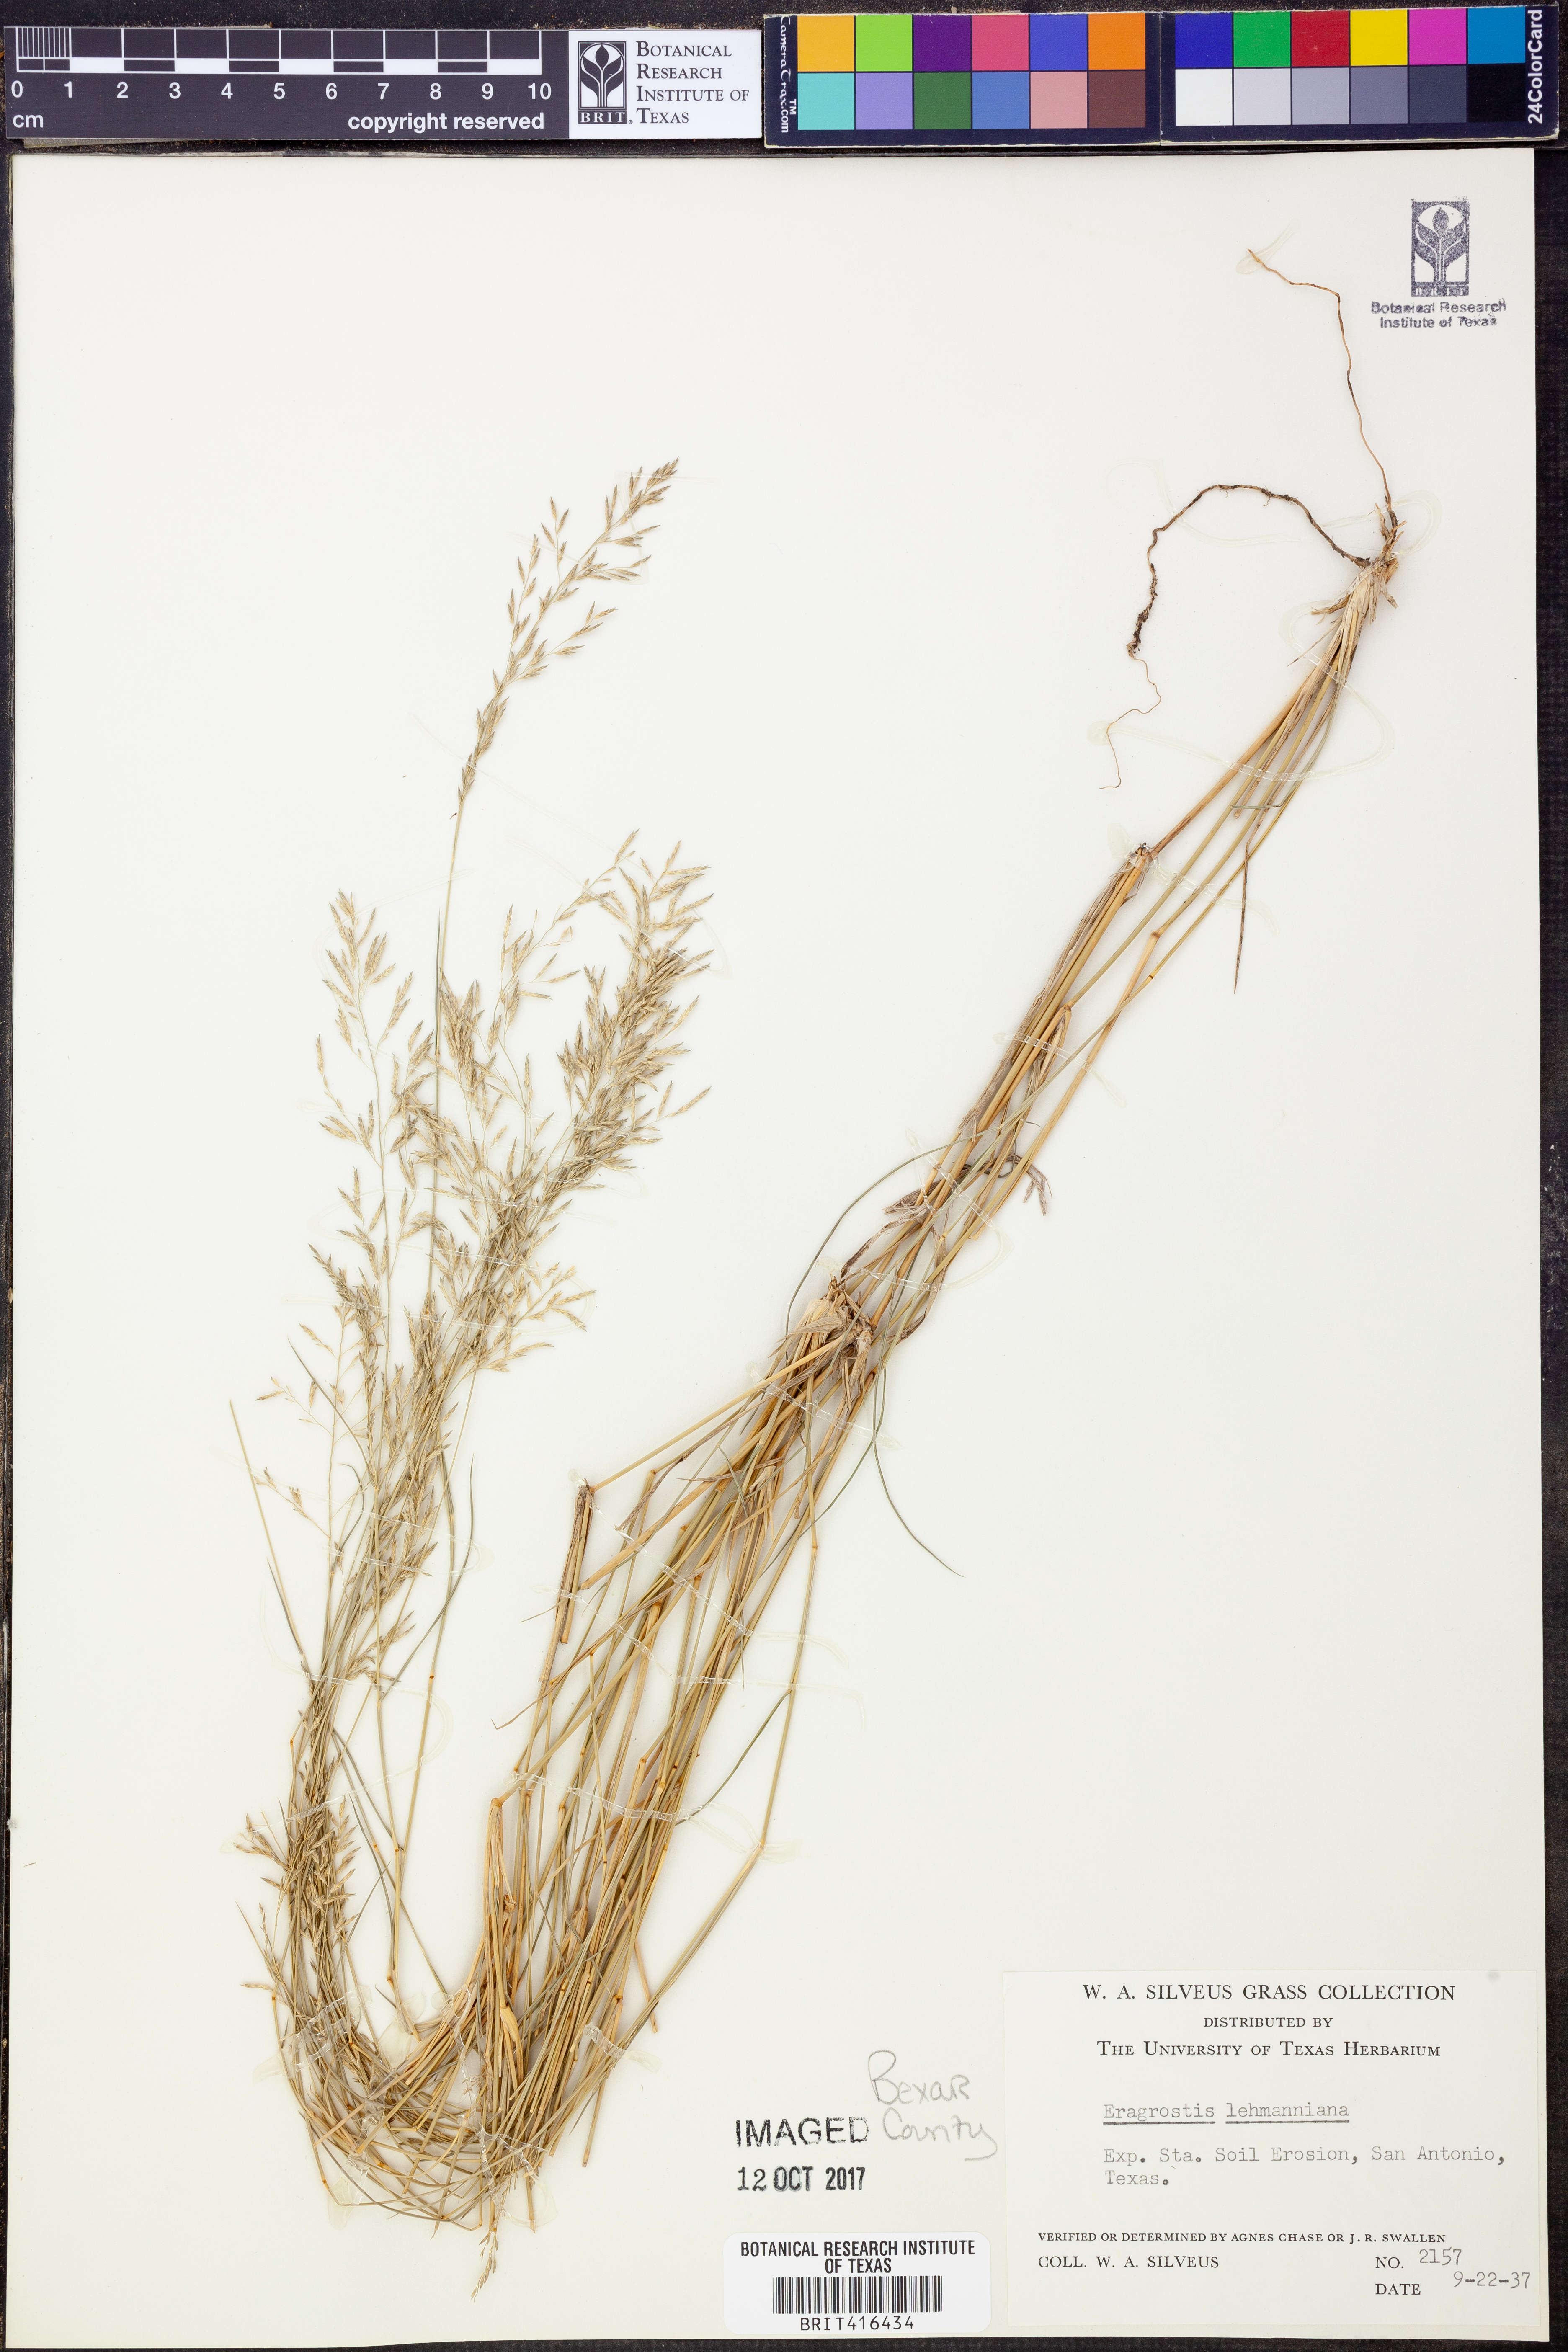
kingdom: Plantae
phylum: Tracheophyta
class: Liliopsida
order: Poales
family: Poaceae
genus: Eragrostis
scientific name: Eragrostis lehmanniana
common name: Lehmann lovegrass
